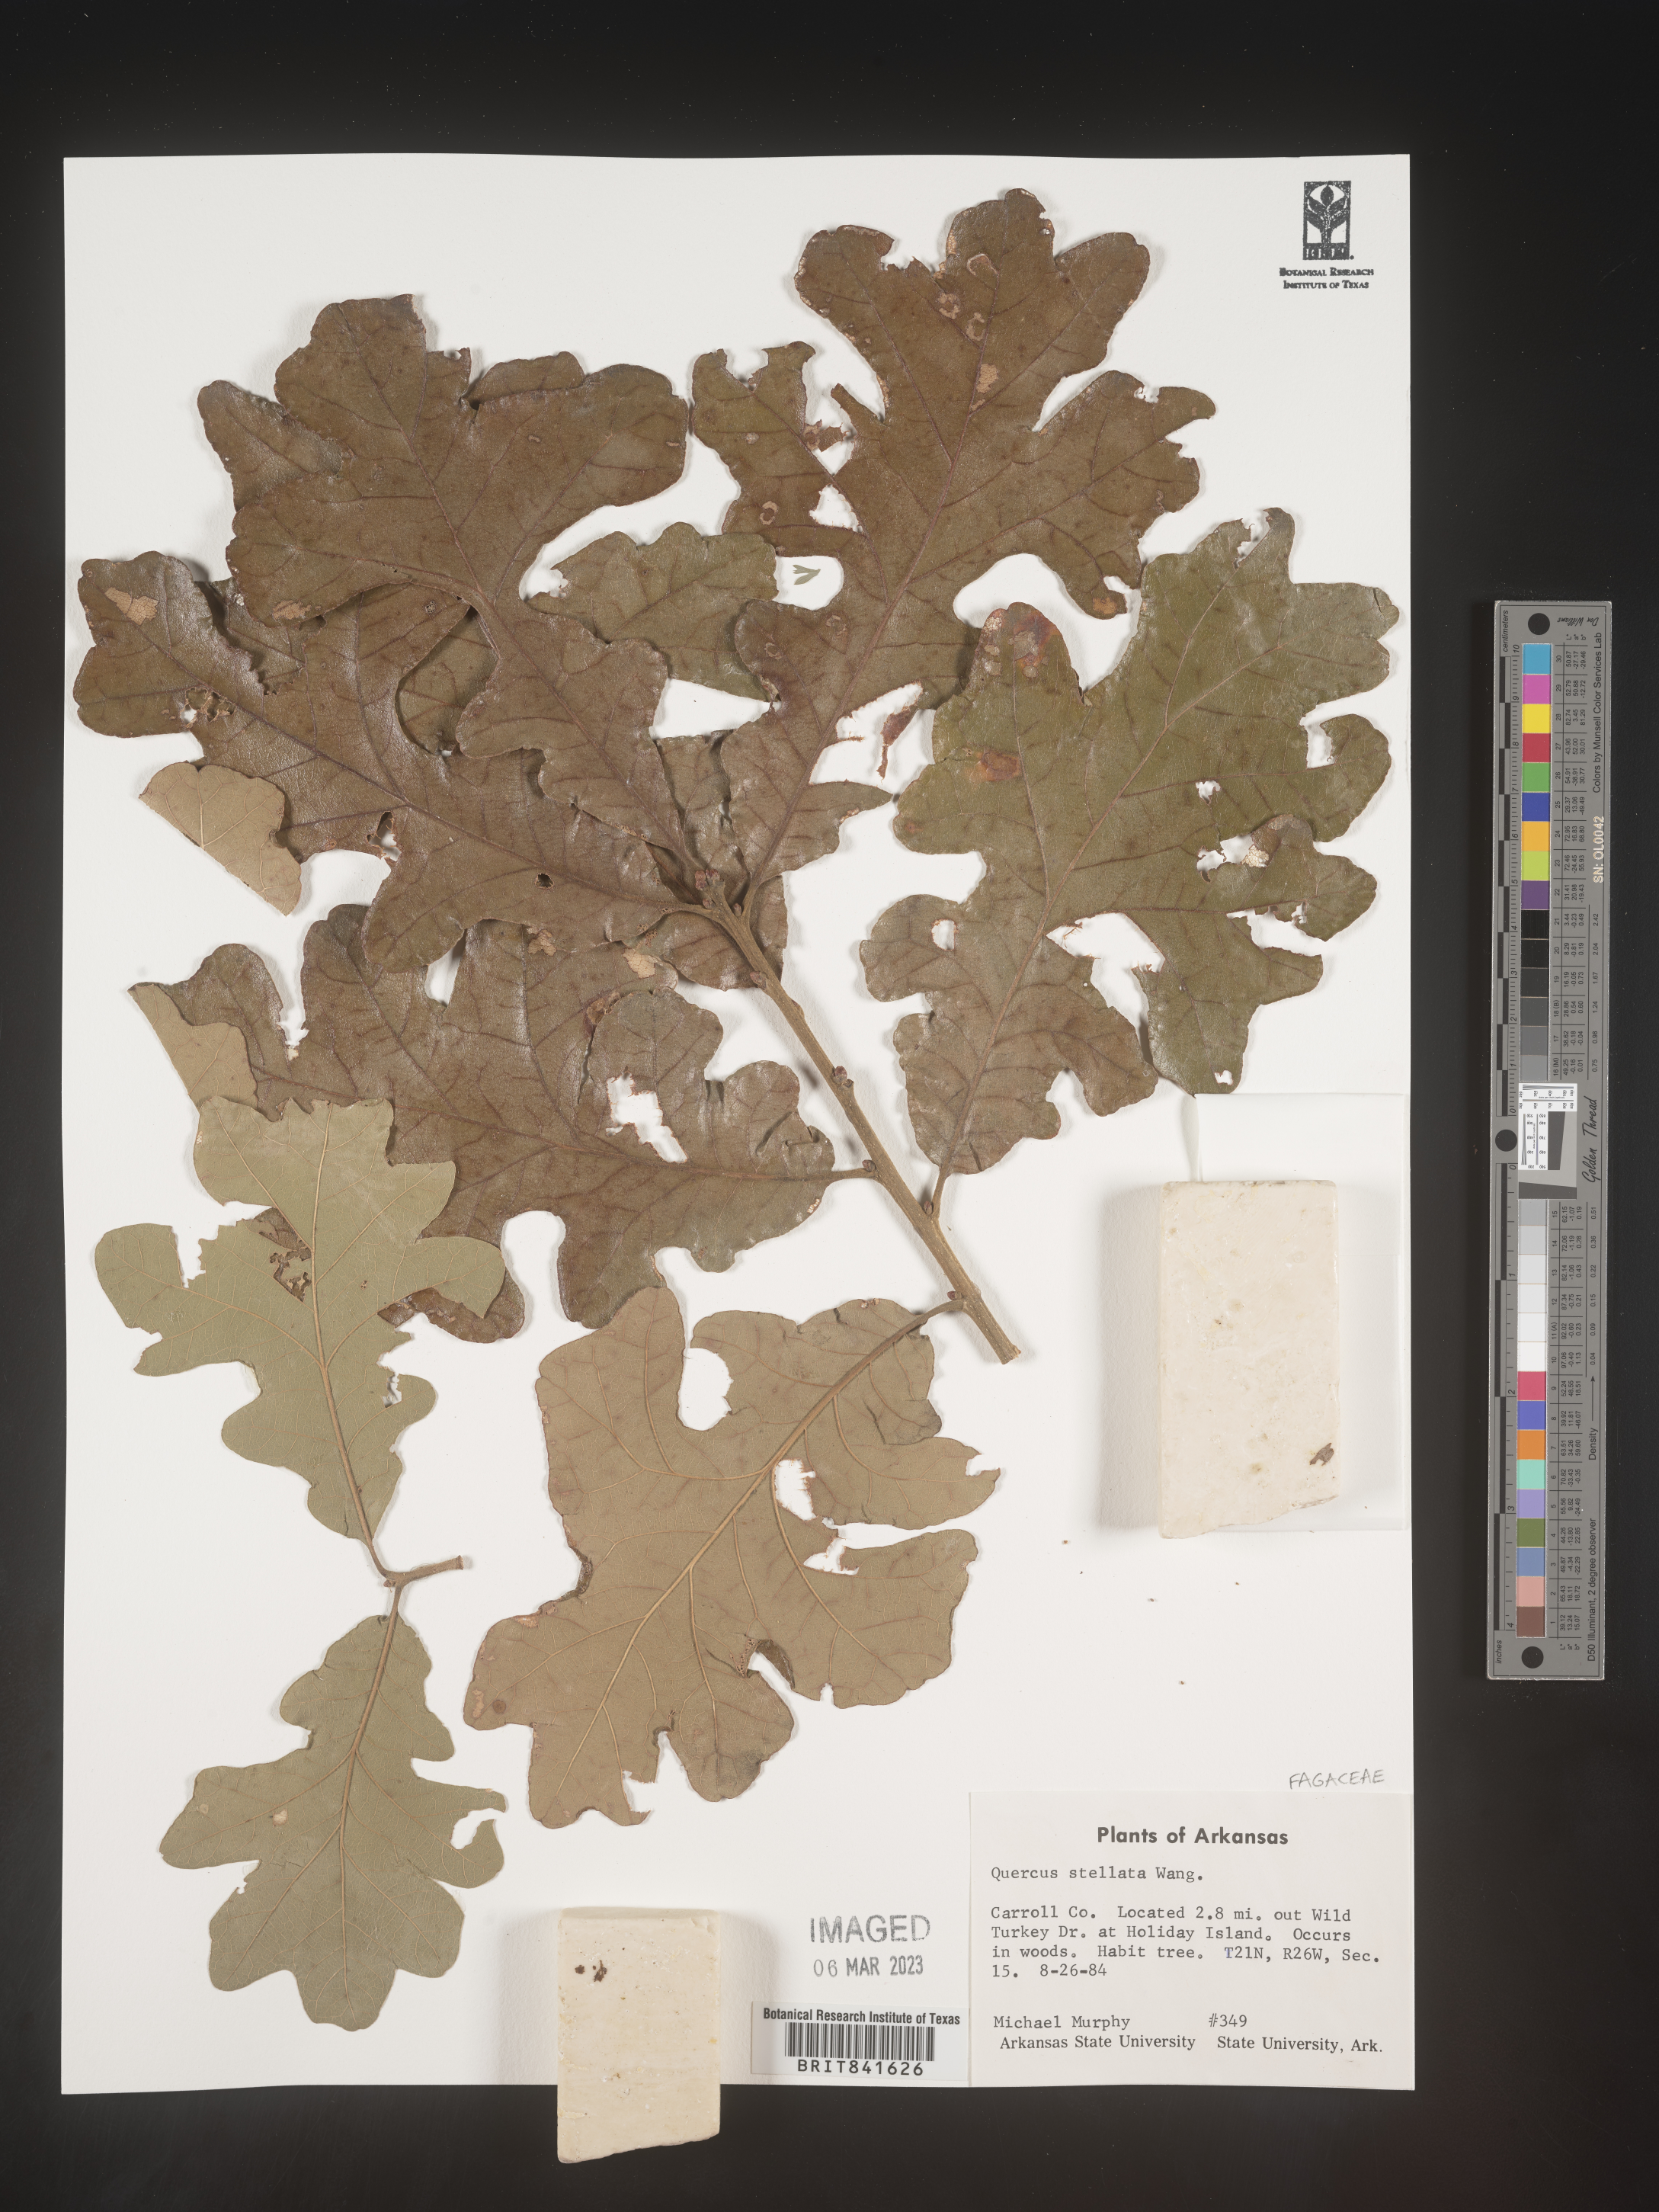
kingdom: Plantae
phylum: Tracheophyta
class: Magnoliopsida
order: Fagales
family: Fagaceae
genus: Quercus
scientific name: Quercus stellata
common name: Post oak
